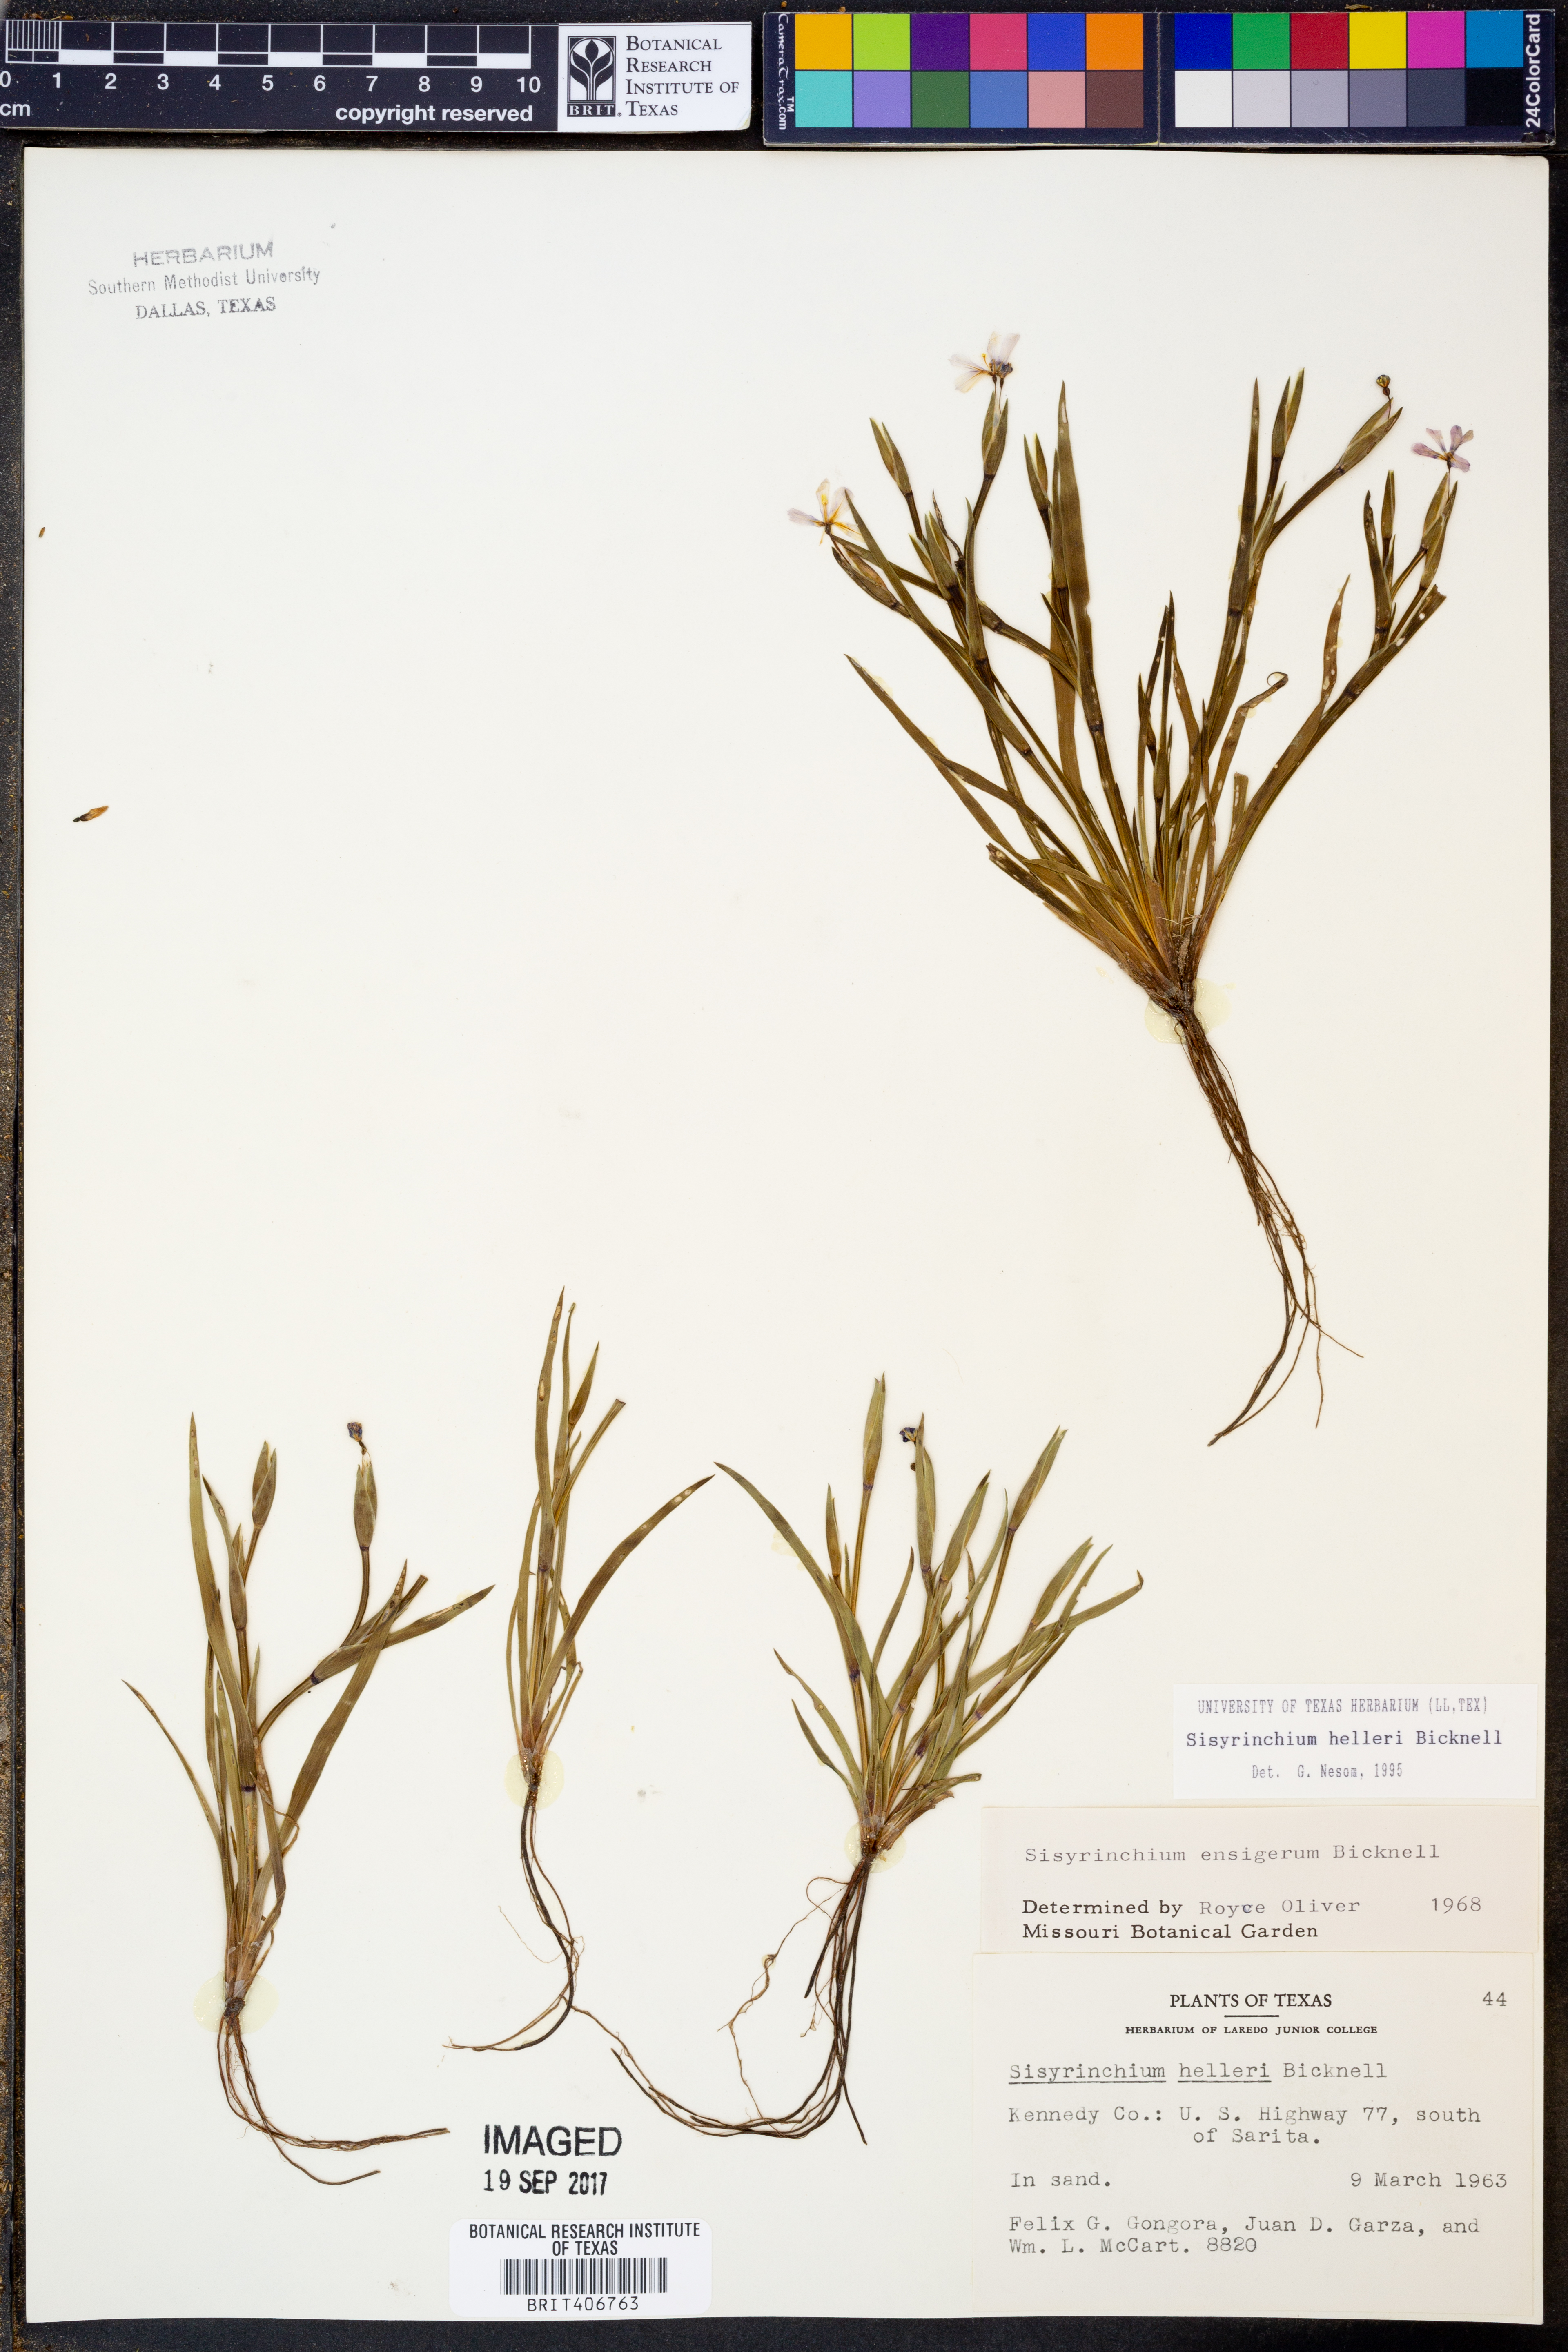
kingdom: Plantae
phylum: Tracheophyta
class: Liliopsida
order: Asparagales
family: Iridaceae
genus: Sisyrinchium
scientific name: Sisyrinchium pruinosum
